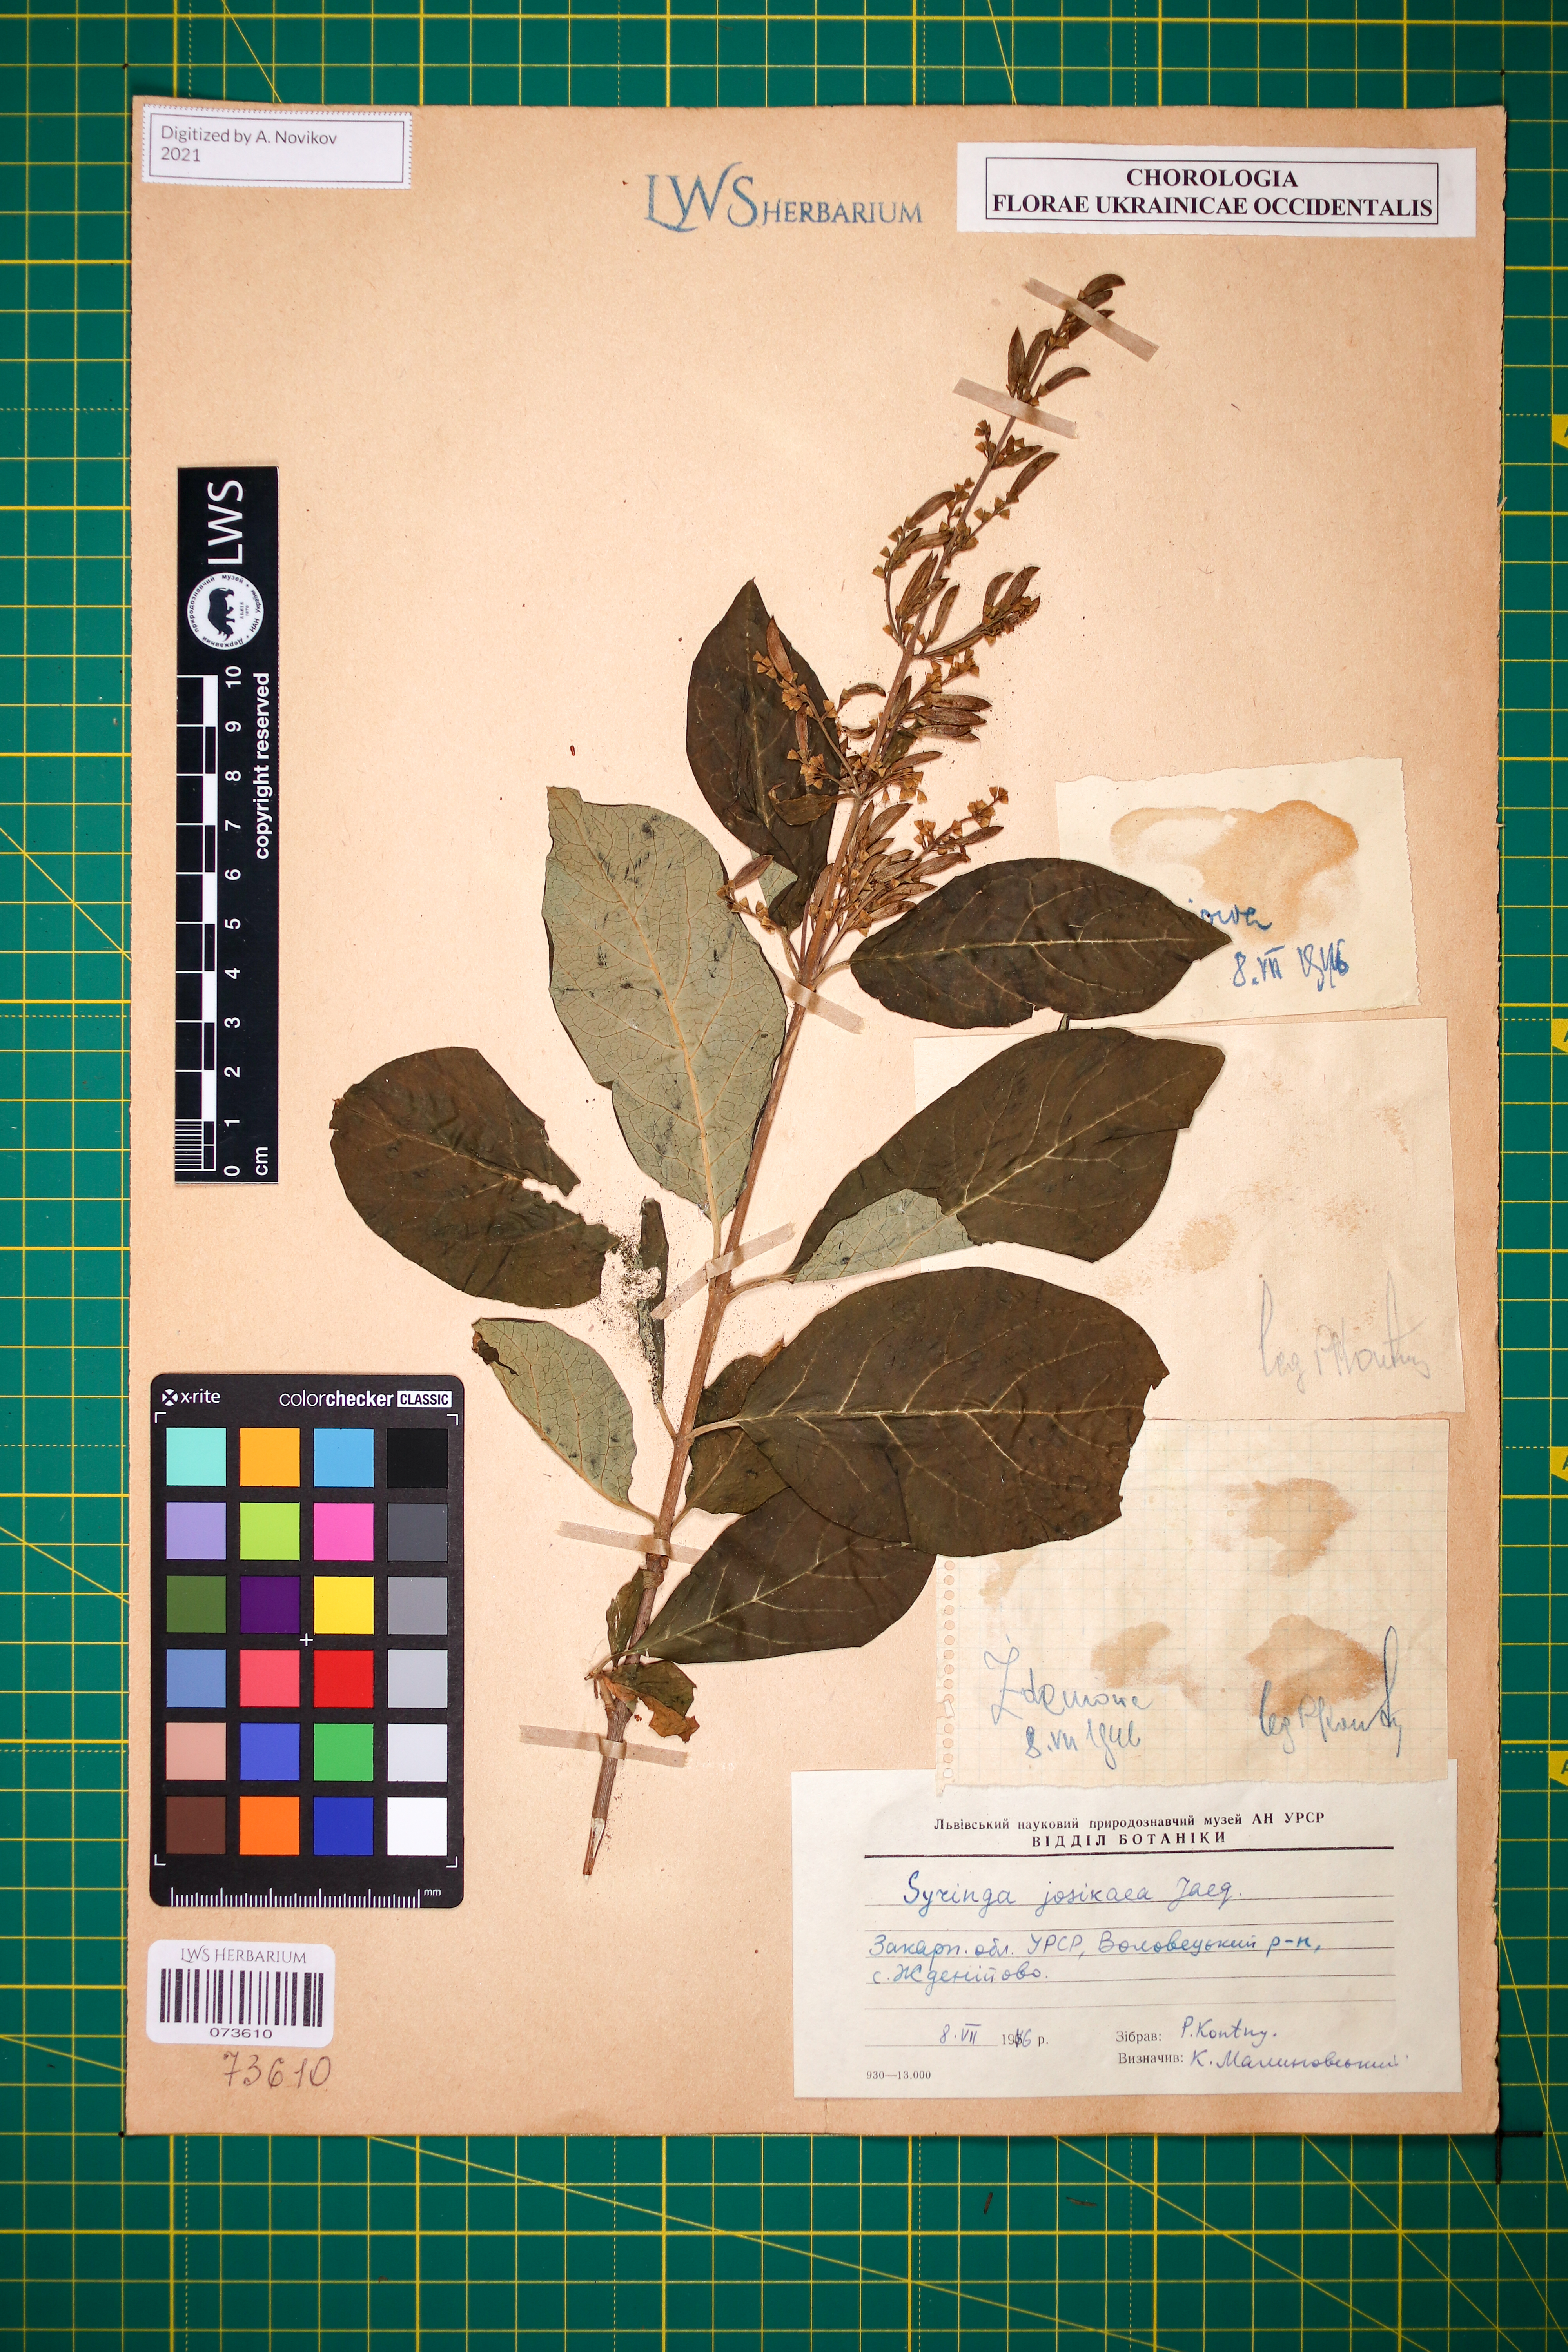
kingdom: Plantae
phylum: Tracheophyta
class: Magnoliopsida
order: Lamiales
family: Oleaceae
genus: Syringa
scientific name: Syringa josikaea
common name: Hungarian lilac
